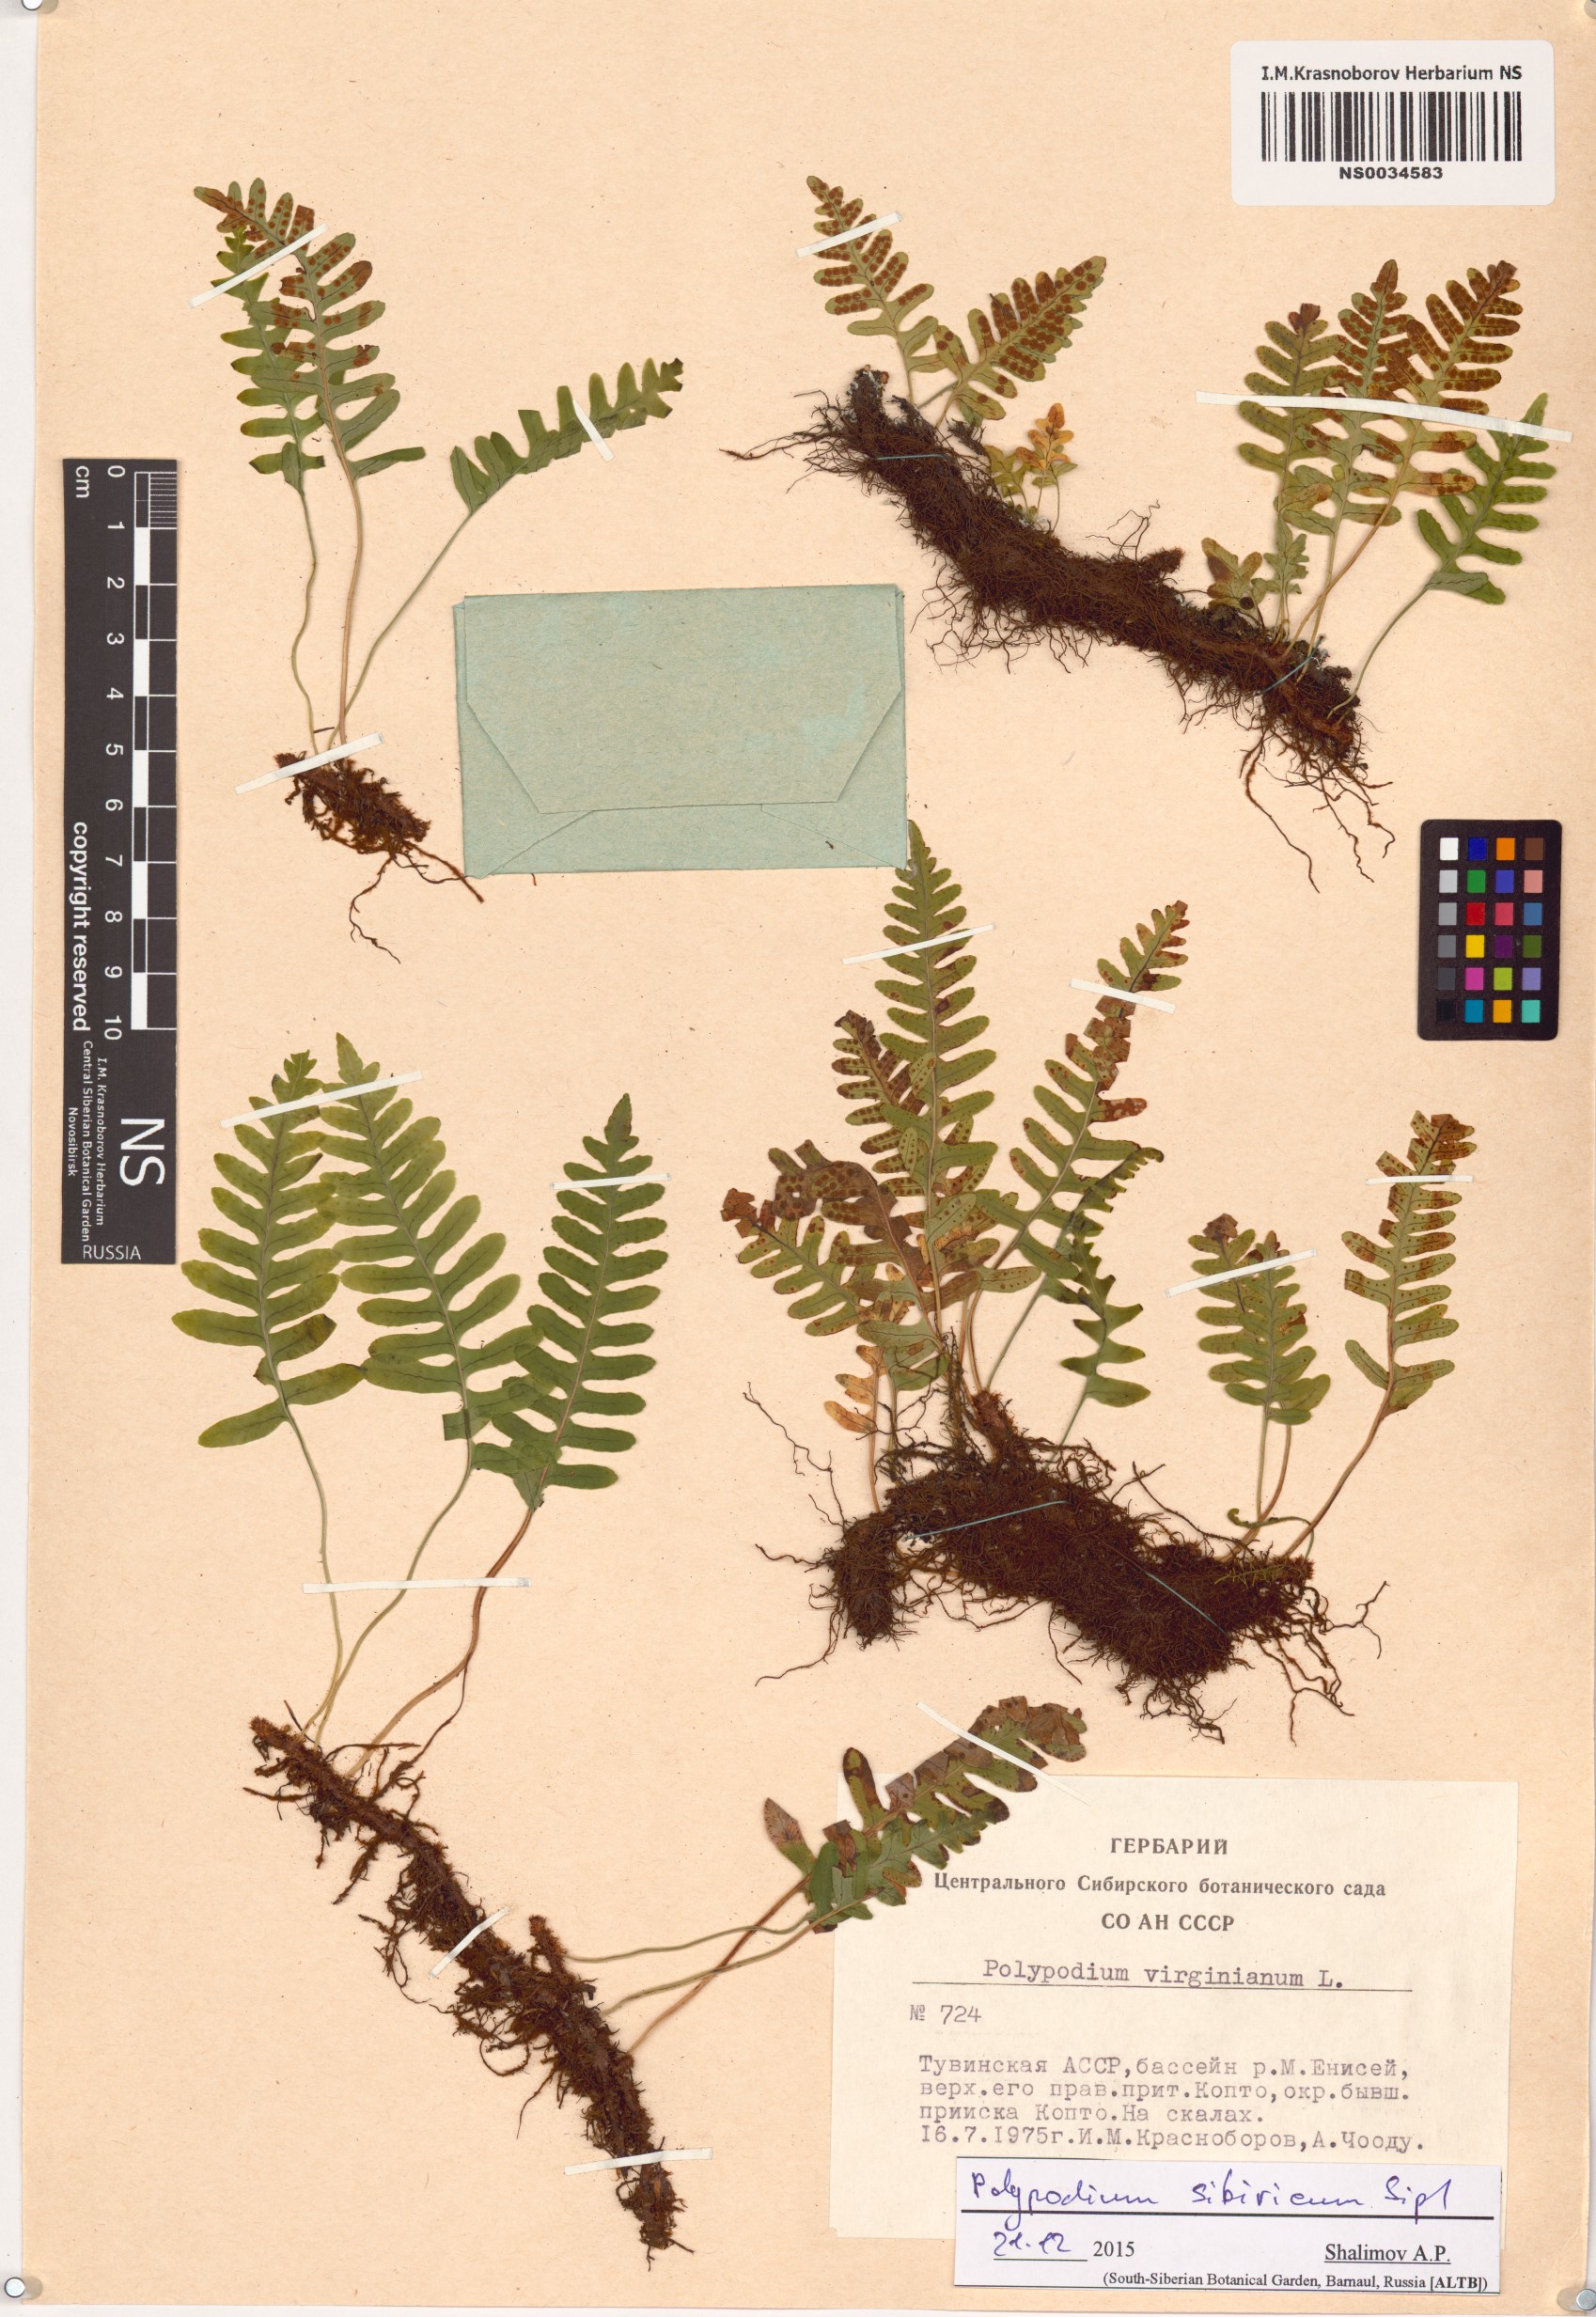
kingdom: Plantae
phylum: Tracheophyta
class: Polypodiopsida
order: Polypodiales
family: Polypodiaceae
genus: Polypodium
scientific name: Polypodium sibiricum
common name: Siberian polypody
